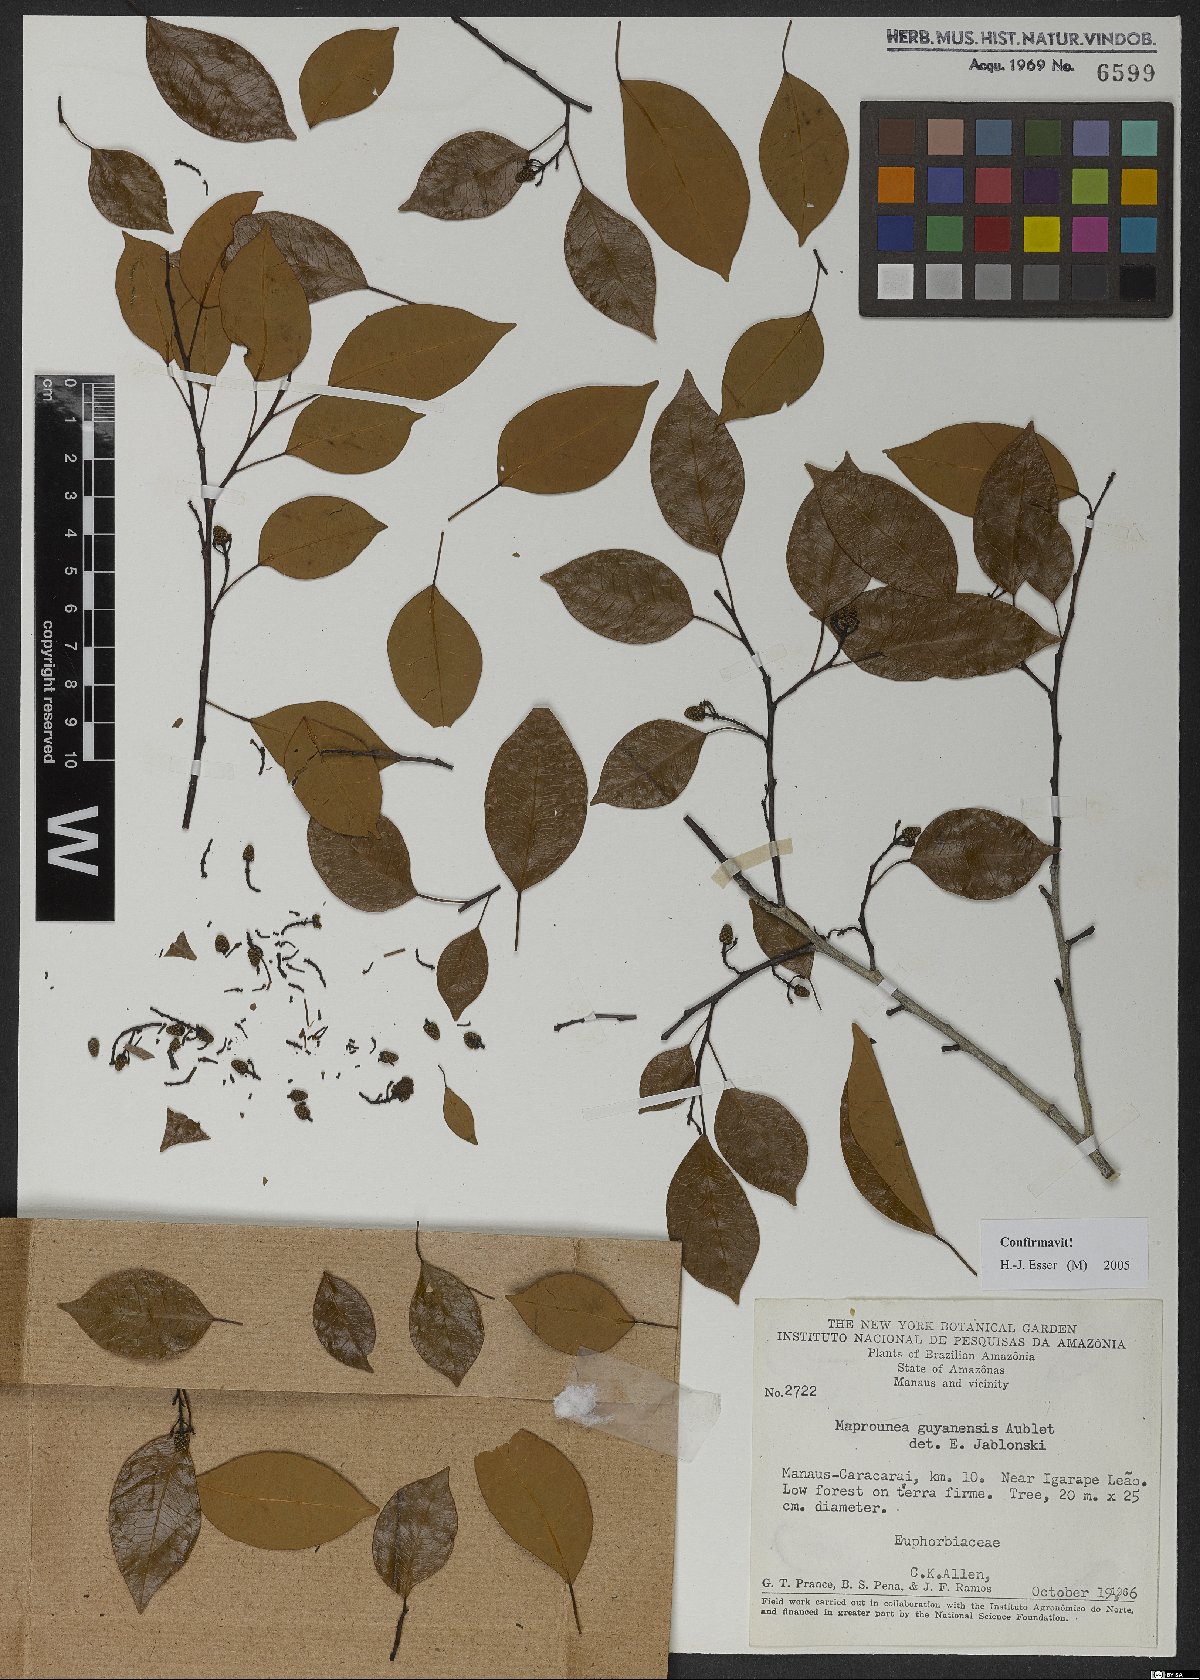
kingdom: Plantae
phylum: Tracheophyta
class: Magnoliopsida
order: Malpighiales
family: Euphorbiaceae
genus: Maprounea
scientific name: Maprounea guianensis
